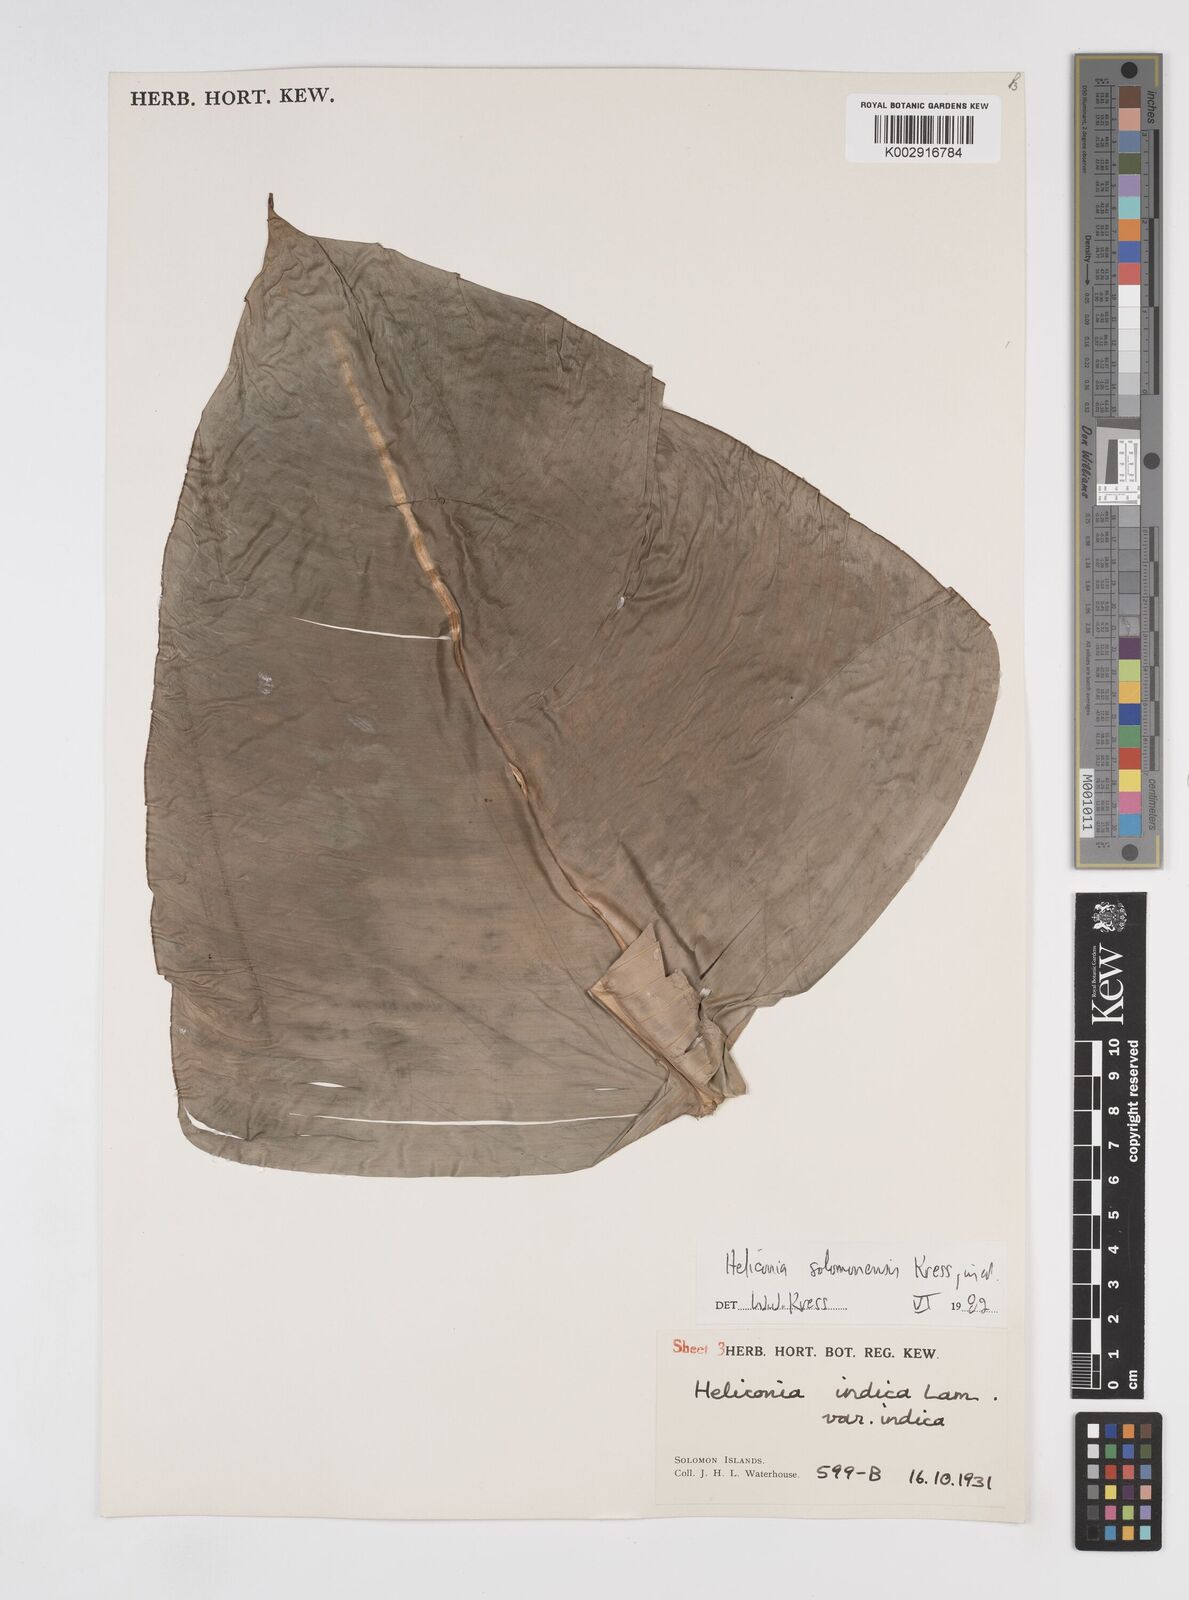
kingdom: Plantae
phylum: Tracheophyta
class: Liliopsida
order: Zingiberales
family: Heliconiaceae
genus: Heliconia
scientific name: Heliconia solomonensis
